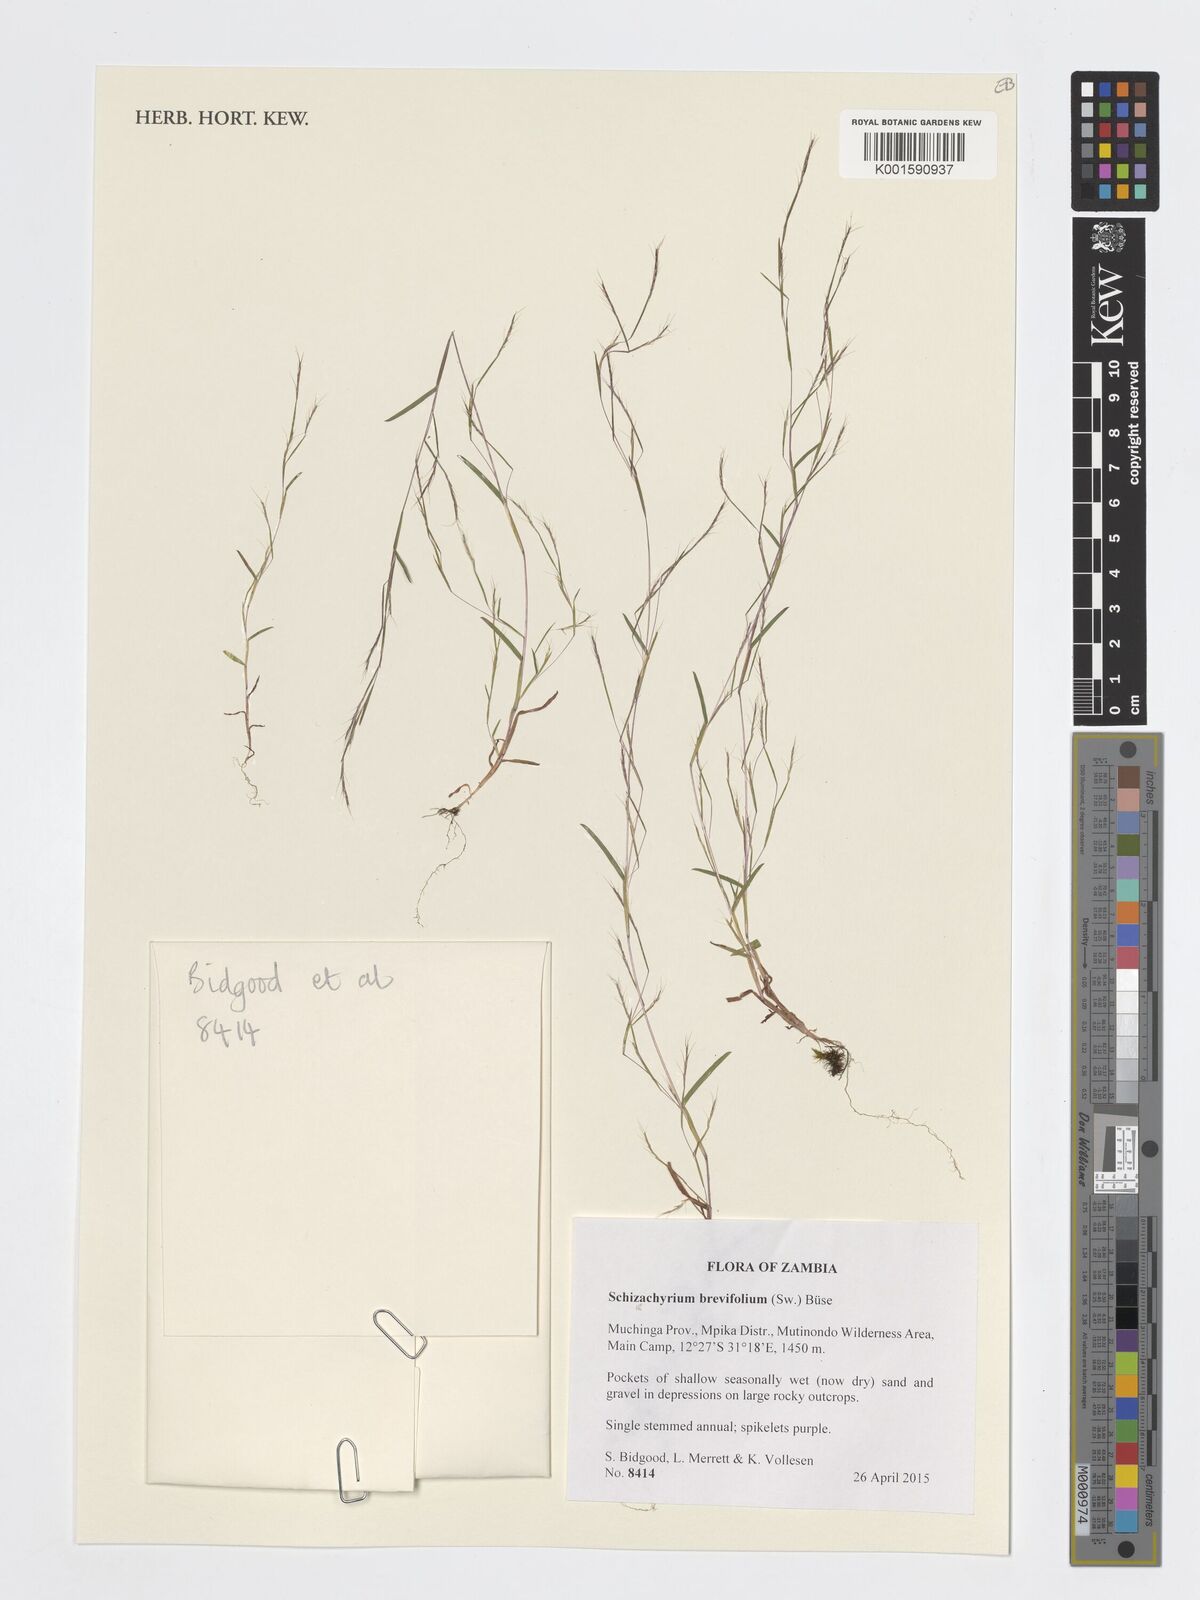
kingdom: Plantae
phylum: Tracheophyta
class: Liliopsida
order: Poales
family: Poaceae
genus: Schizachyrium
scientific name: Schizachyrium brevifolium
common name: Serillo dulce
